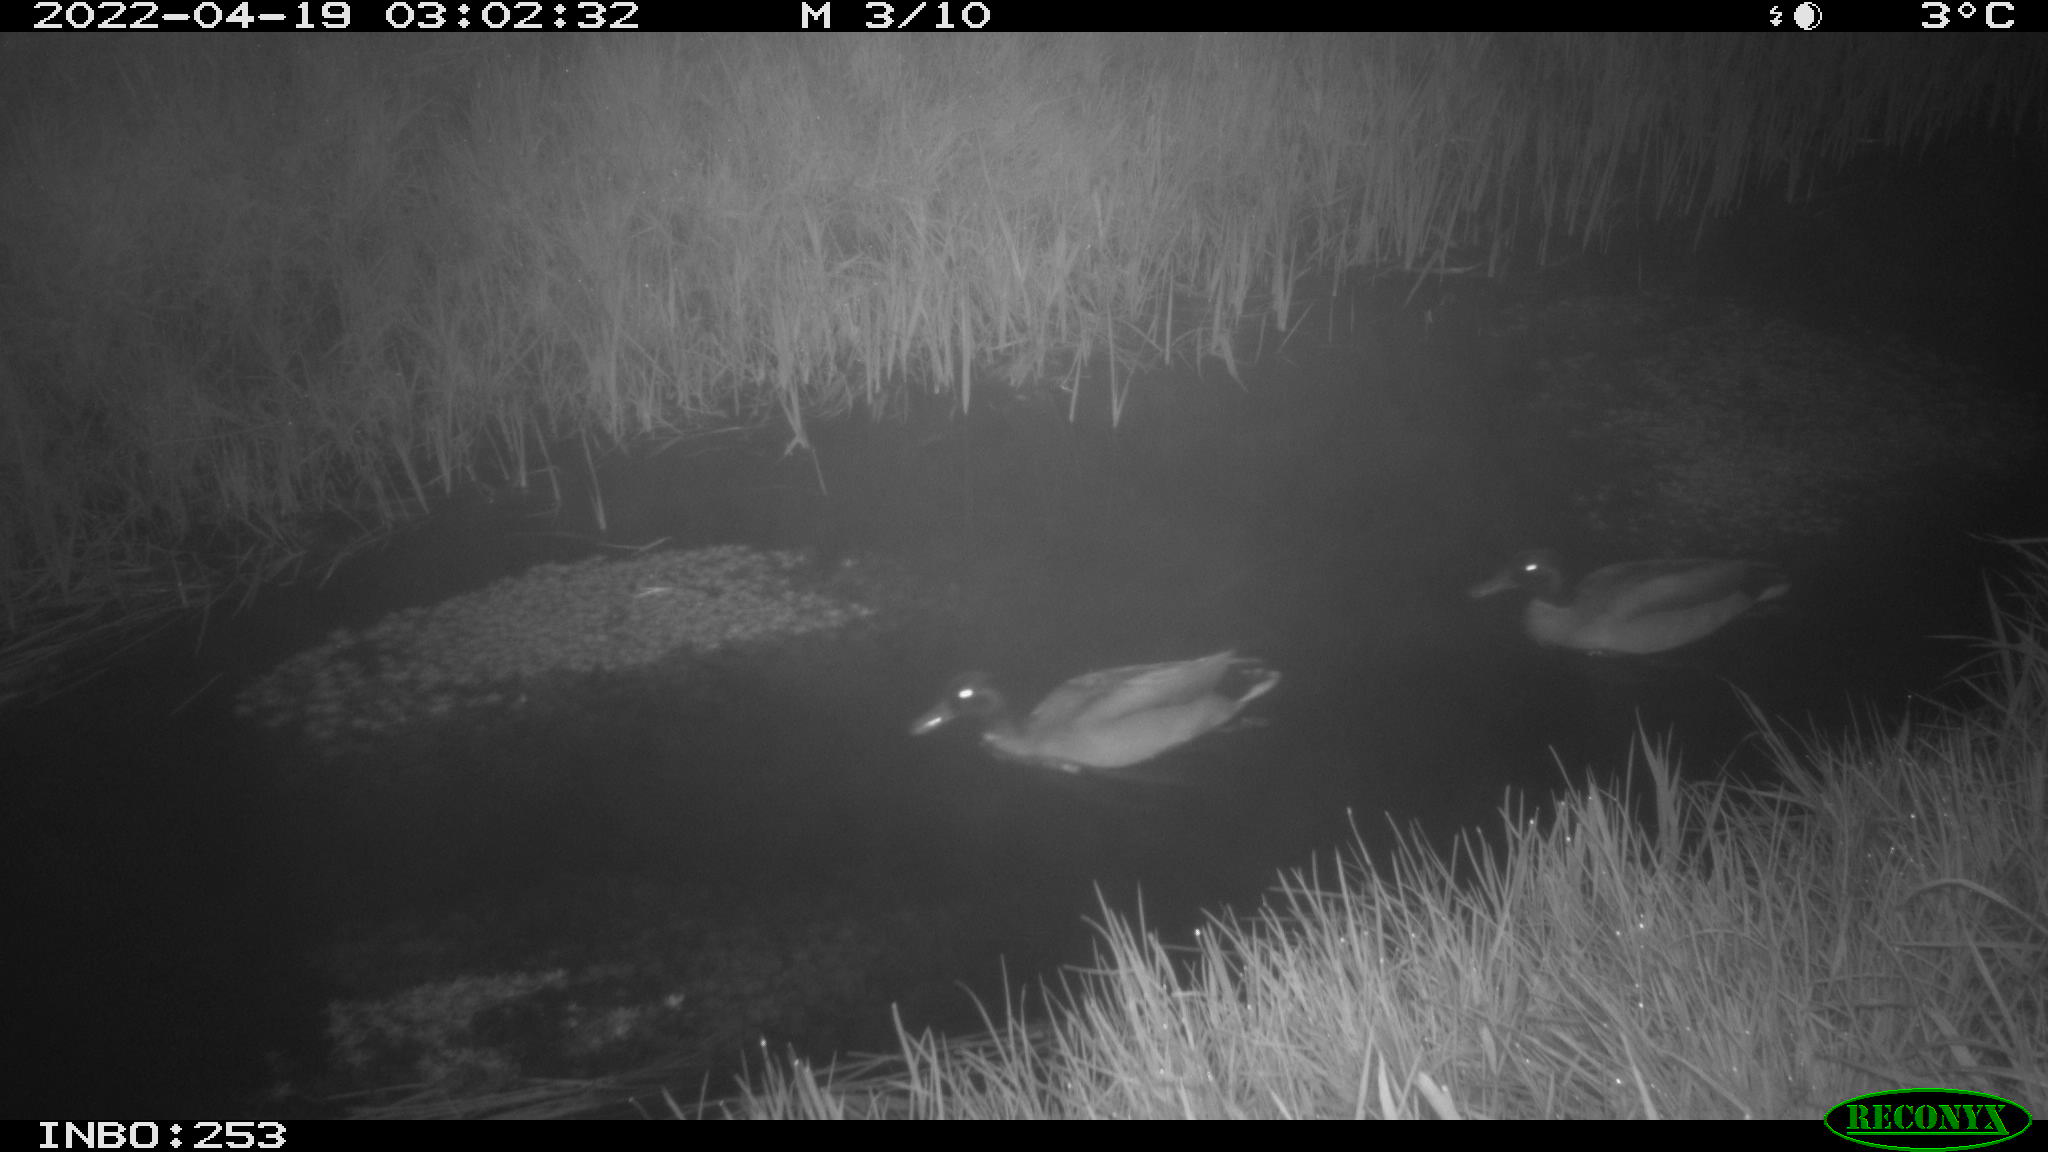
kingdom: Animalia
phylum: Chordata
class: Aves
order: Anseriformes
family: Anatidae
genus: Anas
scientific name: Anas platyrhynchos
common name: Mallard
